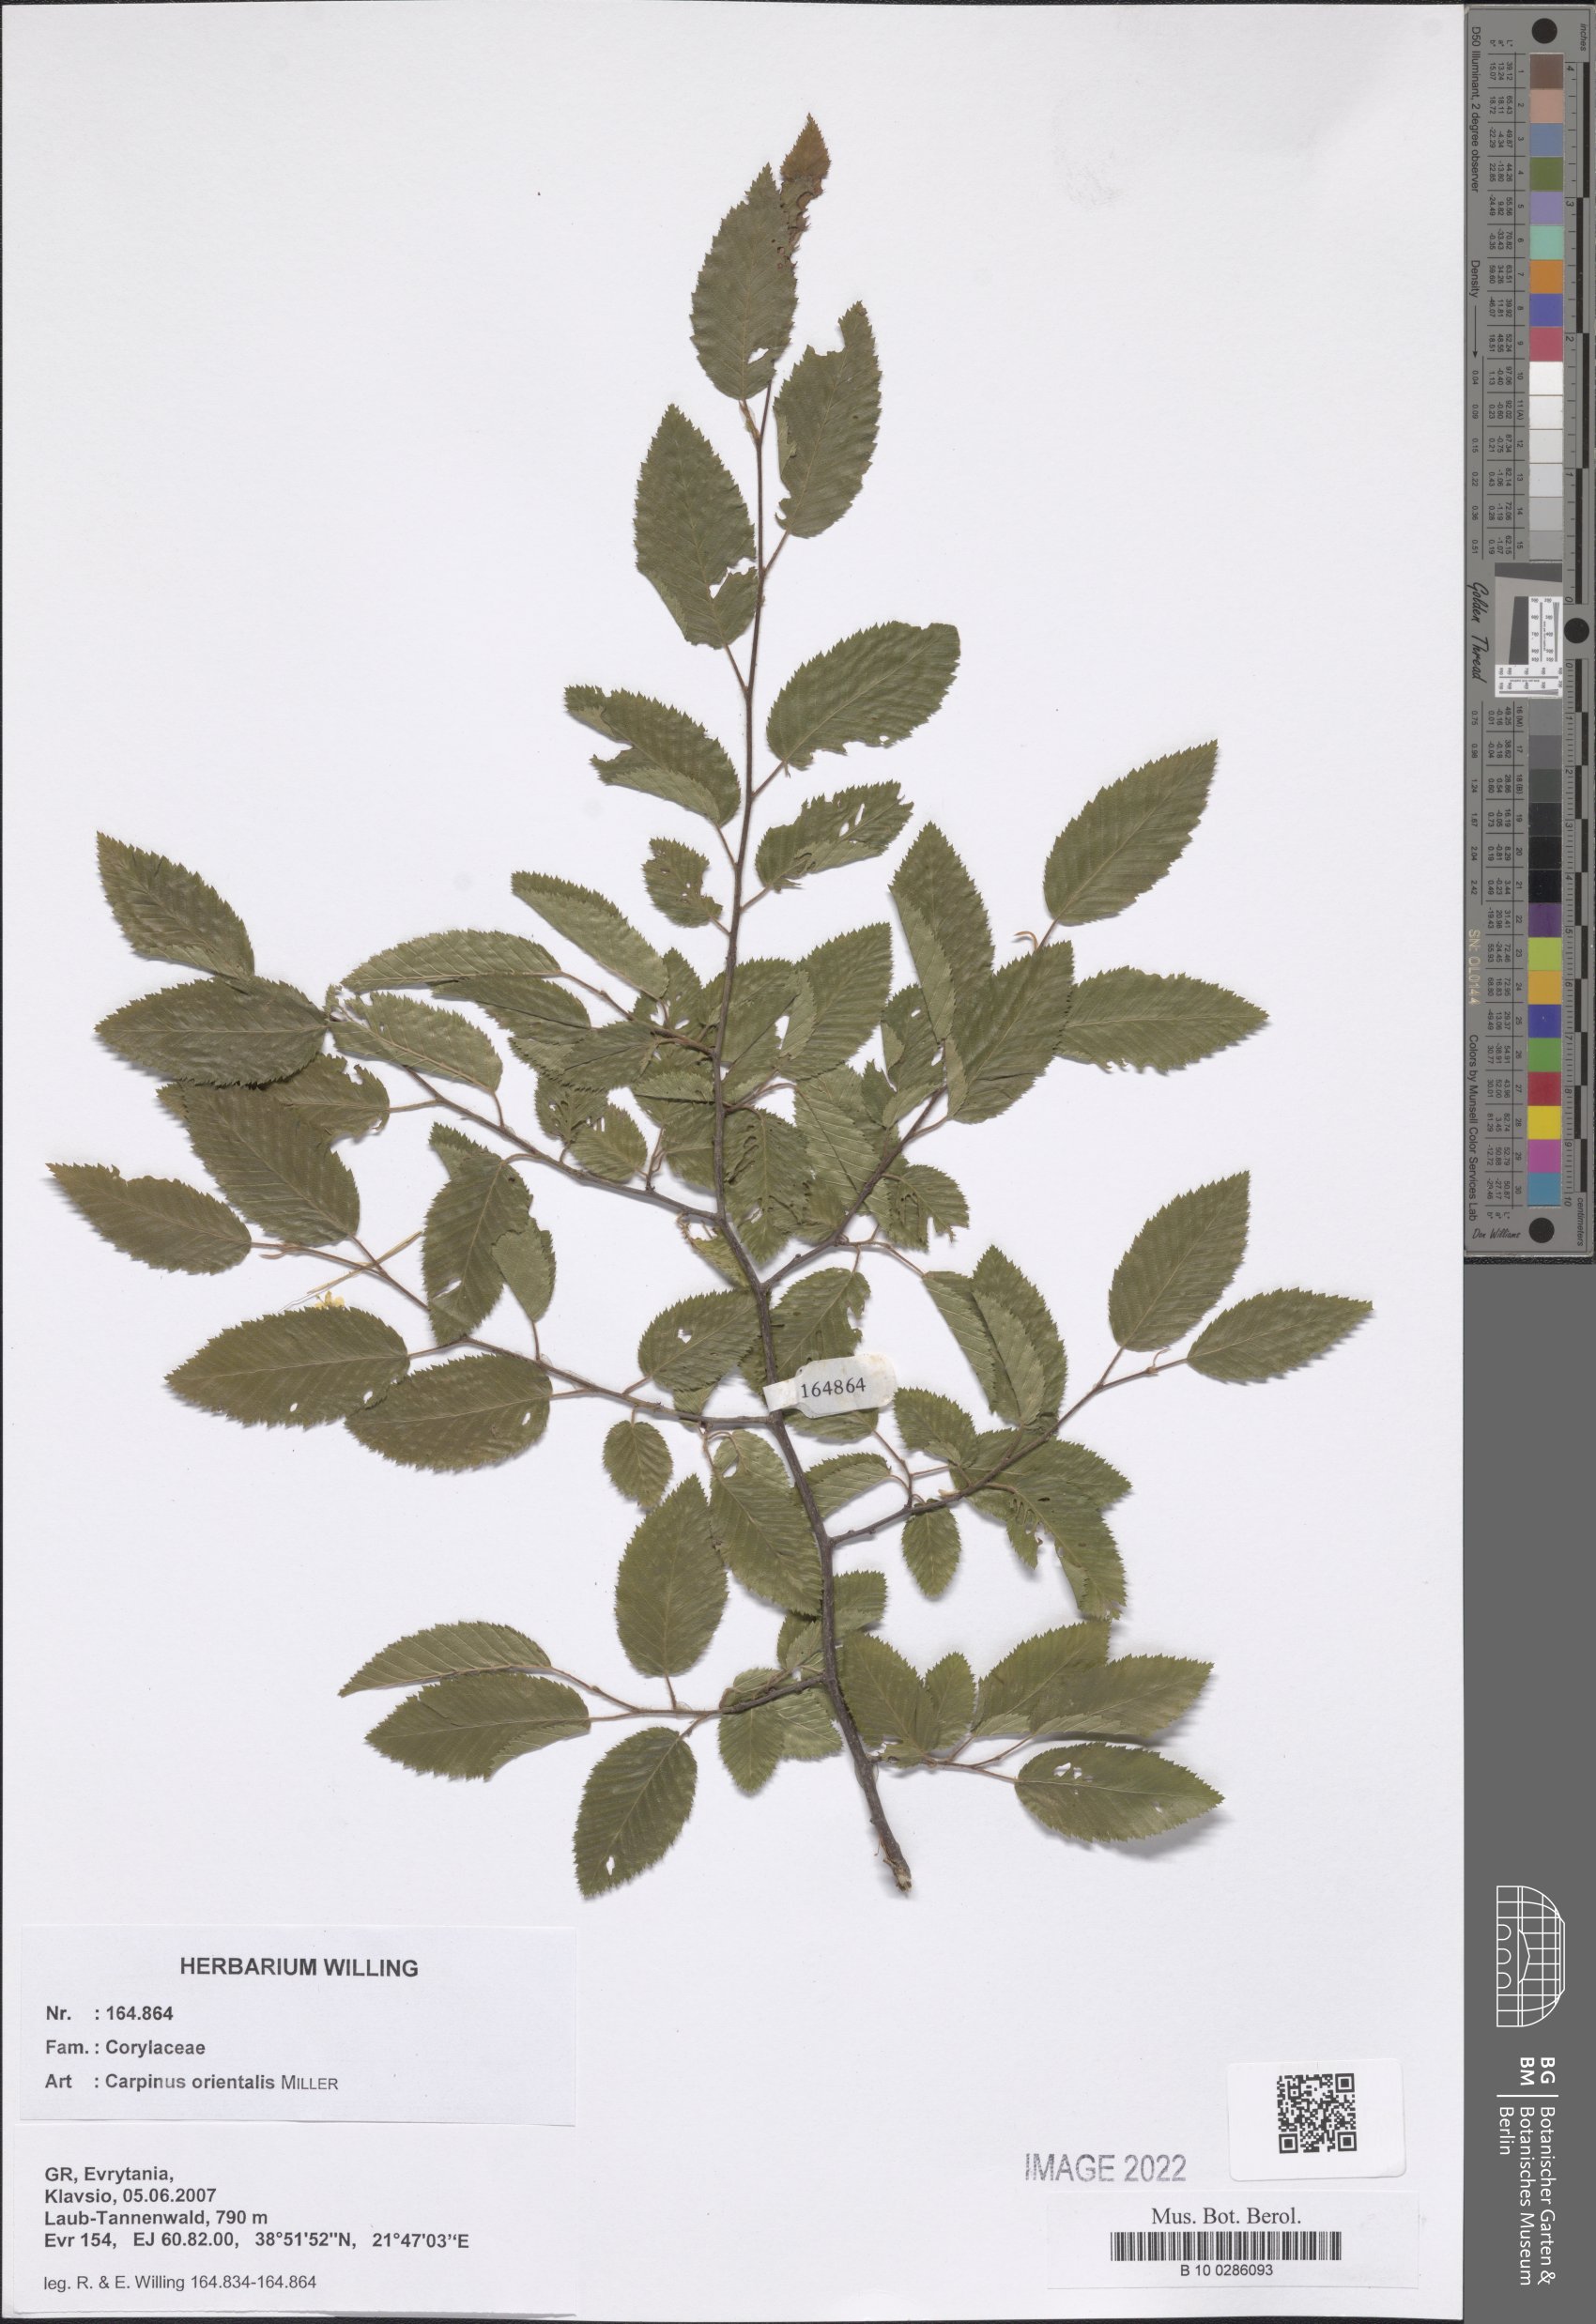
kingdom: Plantae
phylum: Tracheophyta
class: Magnoliopsida
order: Fagales
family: Betulaceae
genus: Carpinus
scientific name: Carpinus orientalis
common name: Eastern hornbeam
